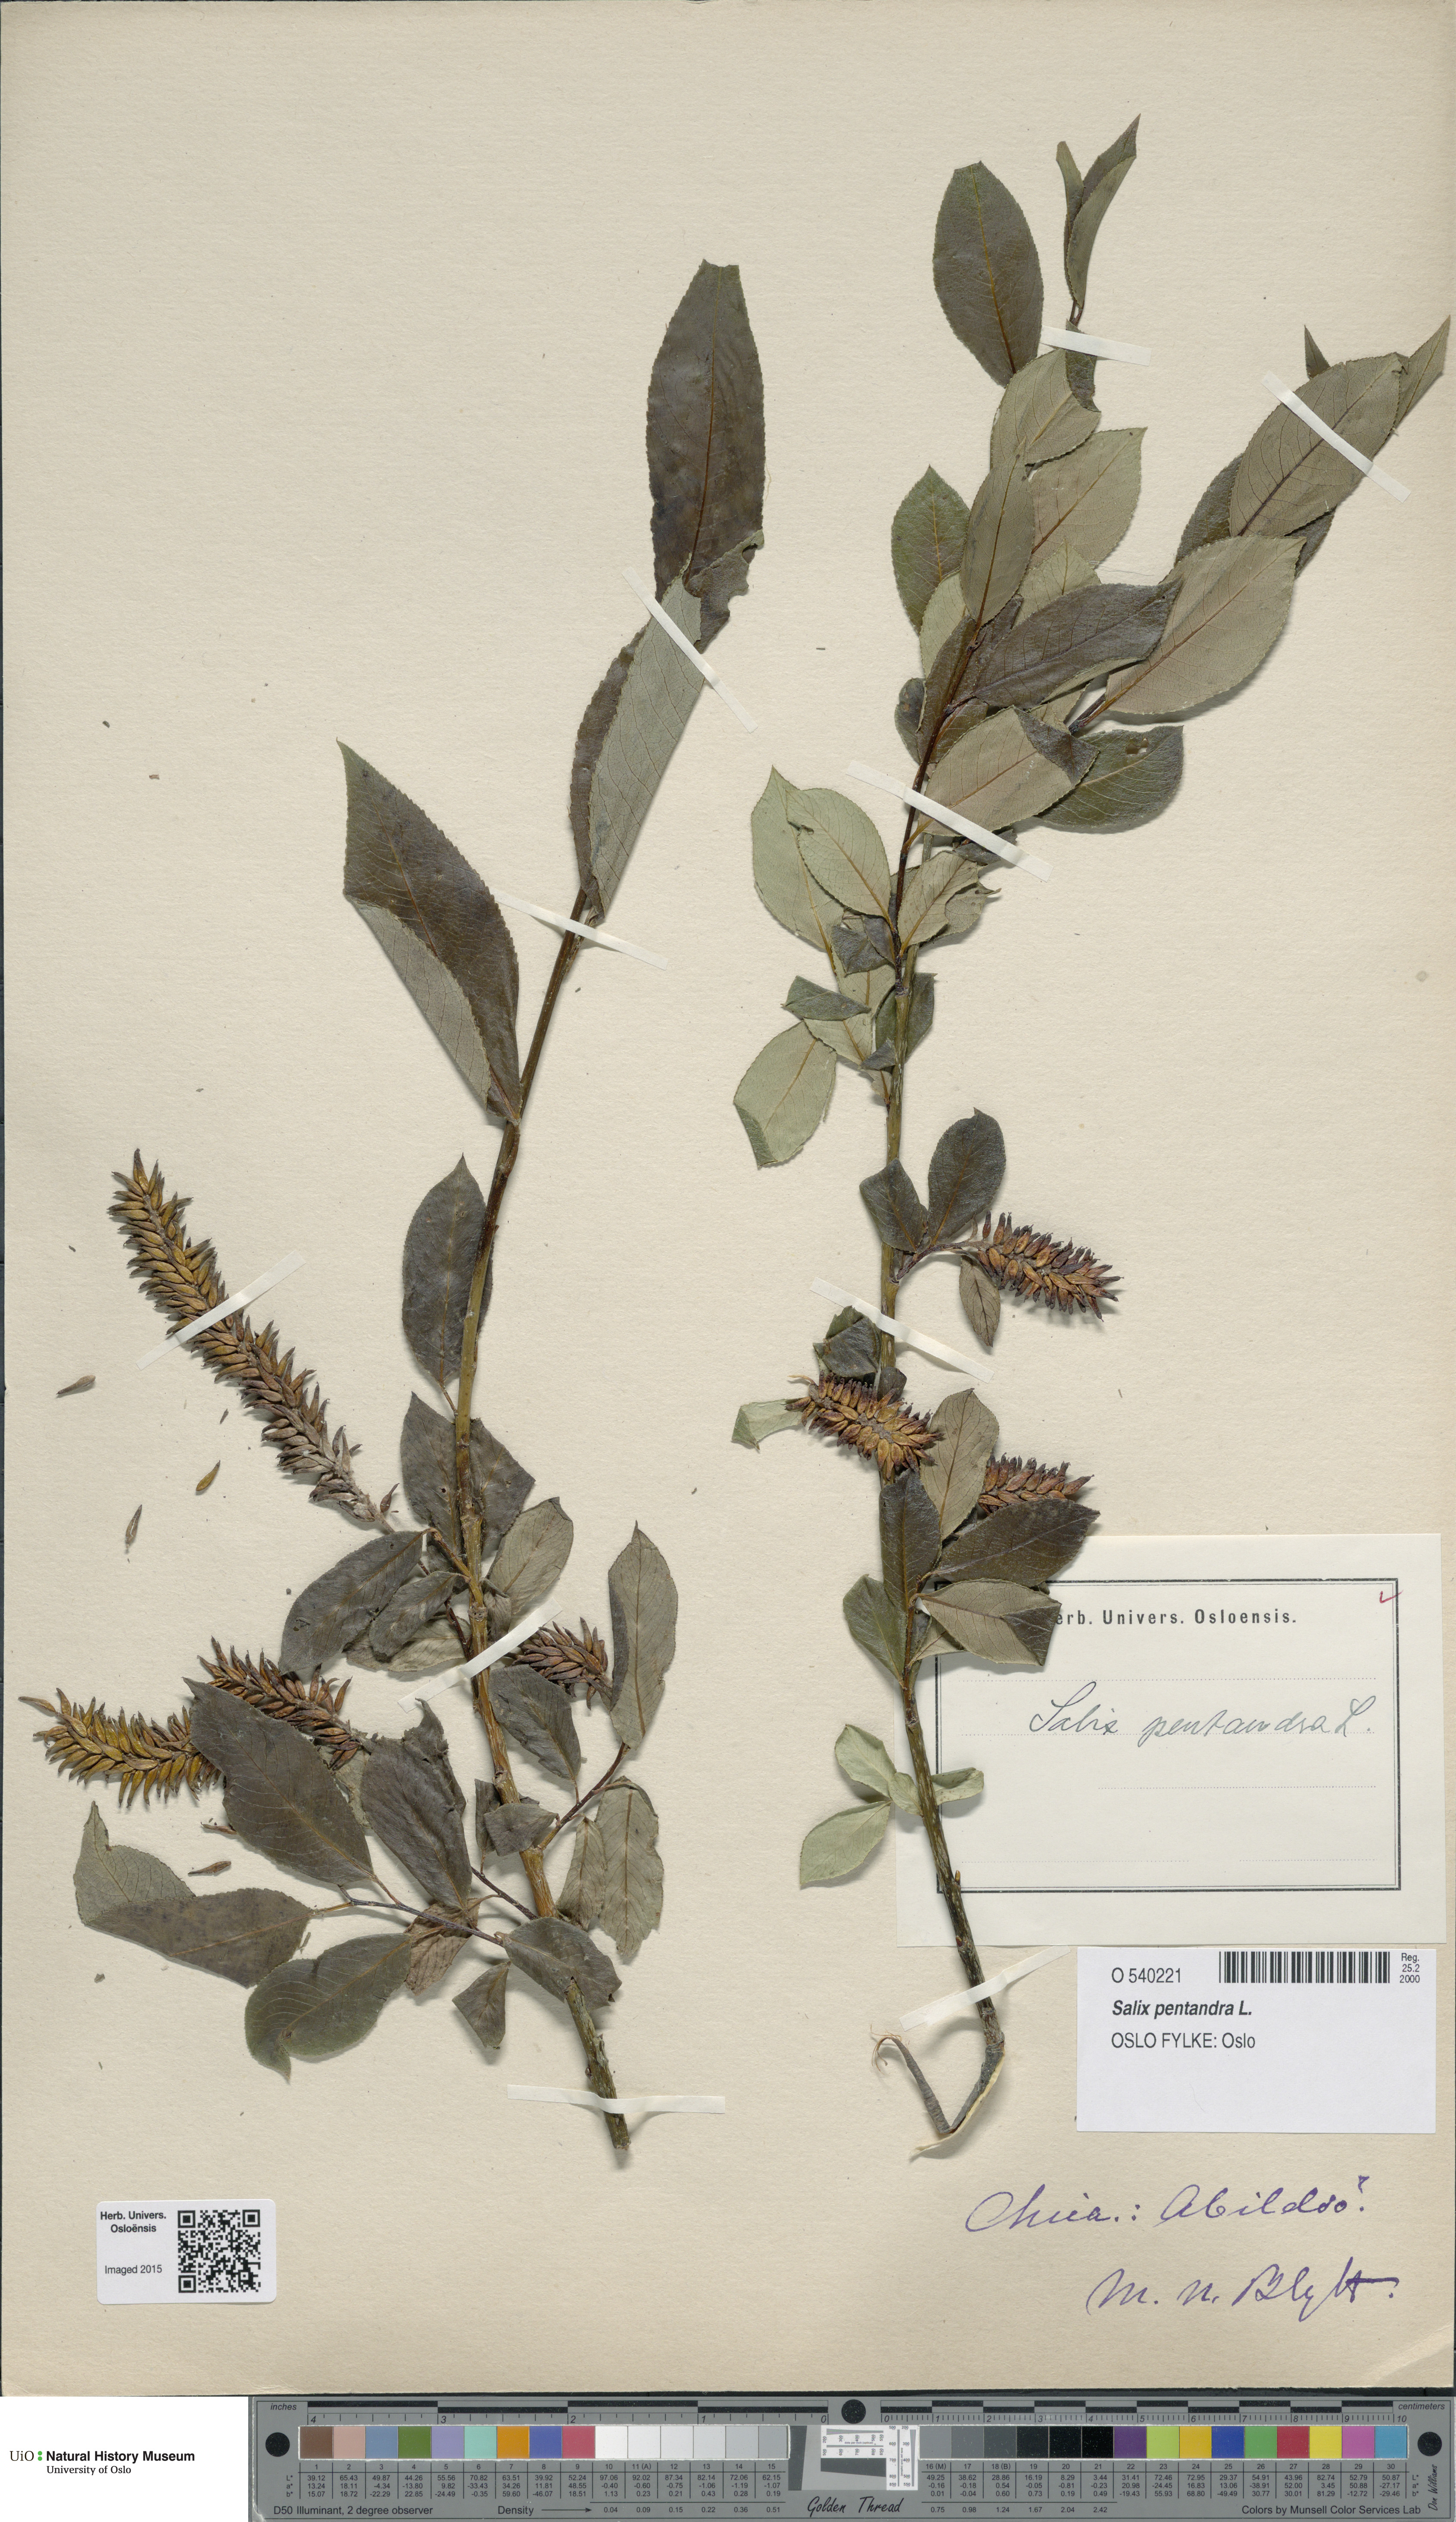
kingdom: Plantae
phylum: Tracheophyta
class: Magnoliopsida
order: Malpighiales
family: Salicaceae
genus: Salix
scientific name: Salix pentandra
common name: Bay willow
